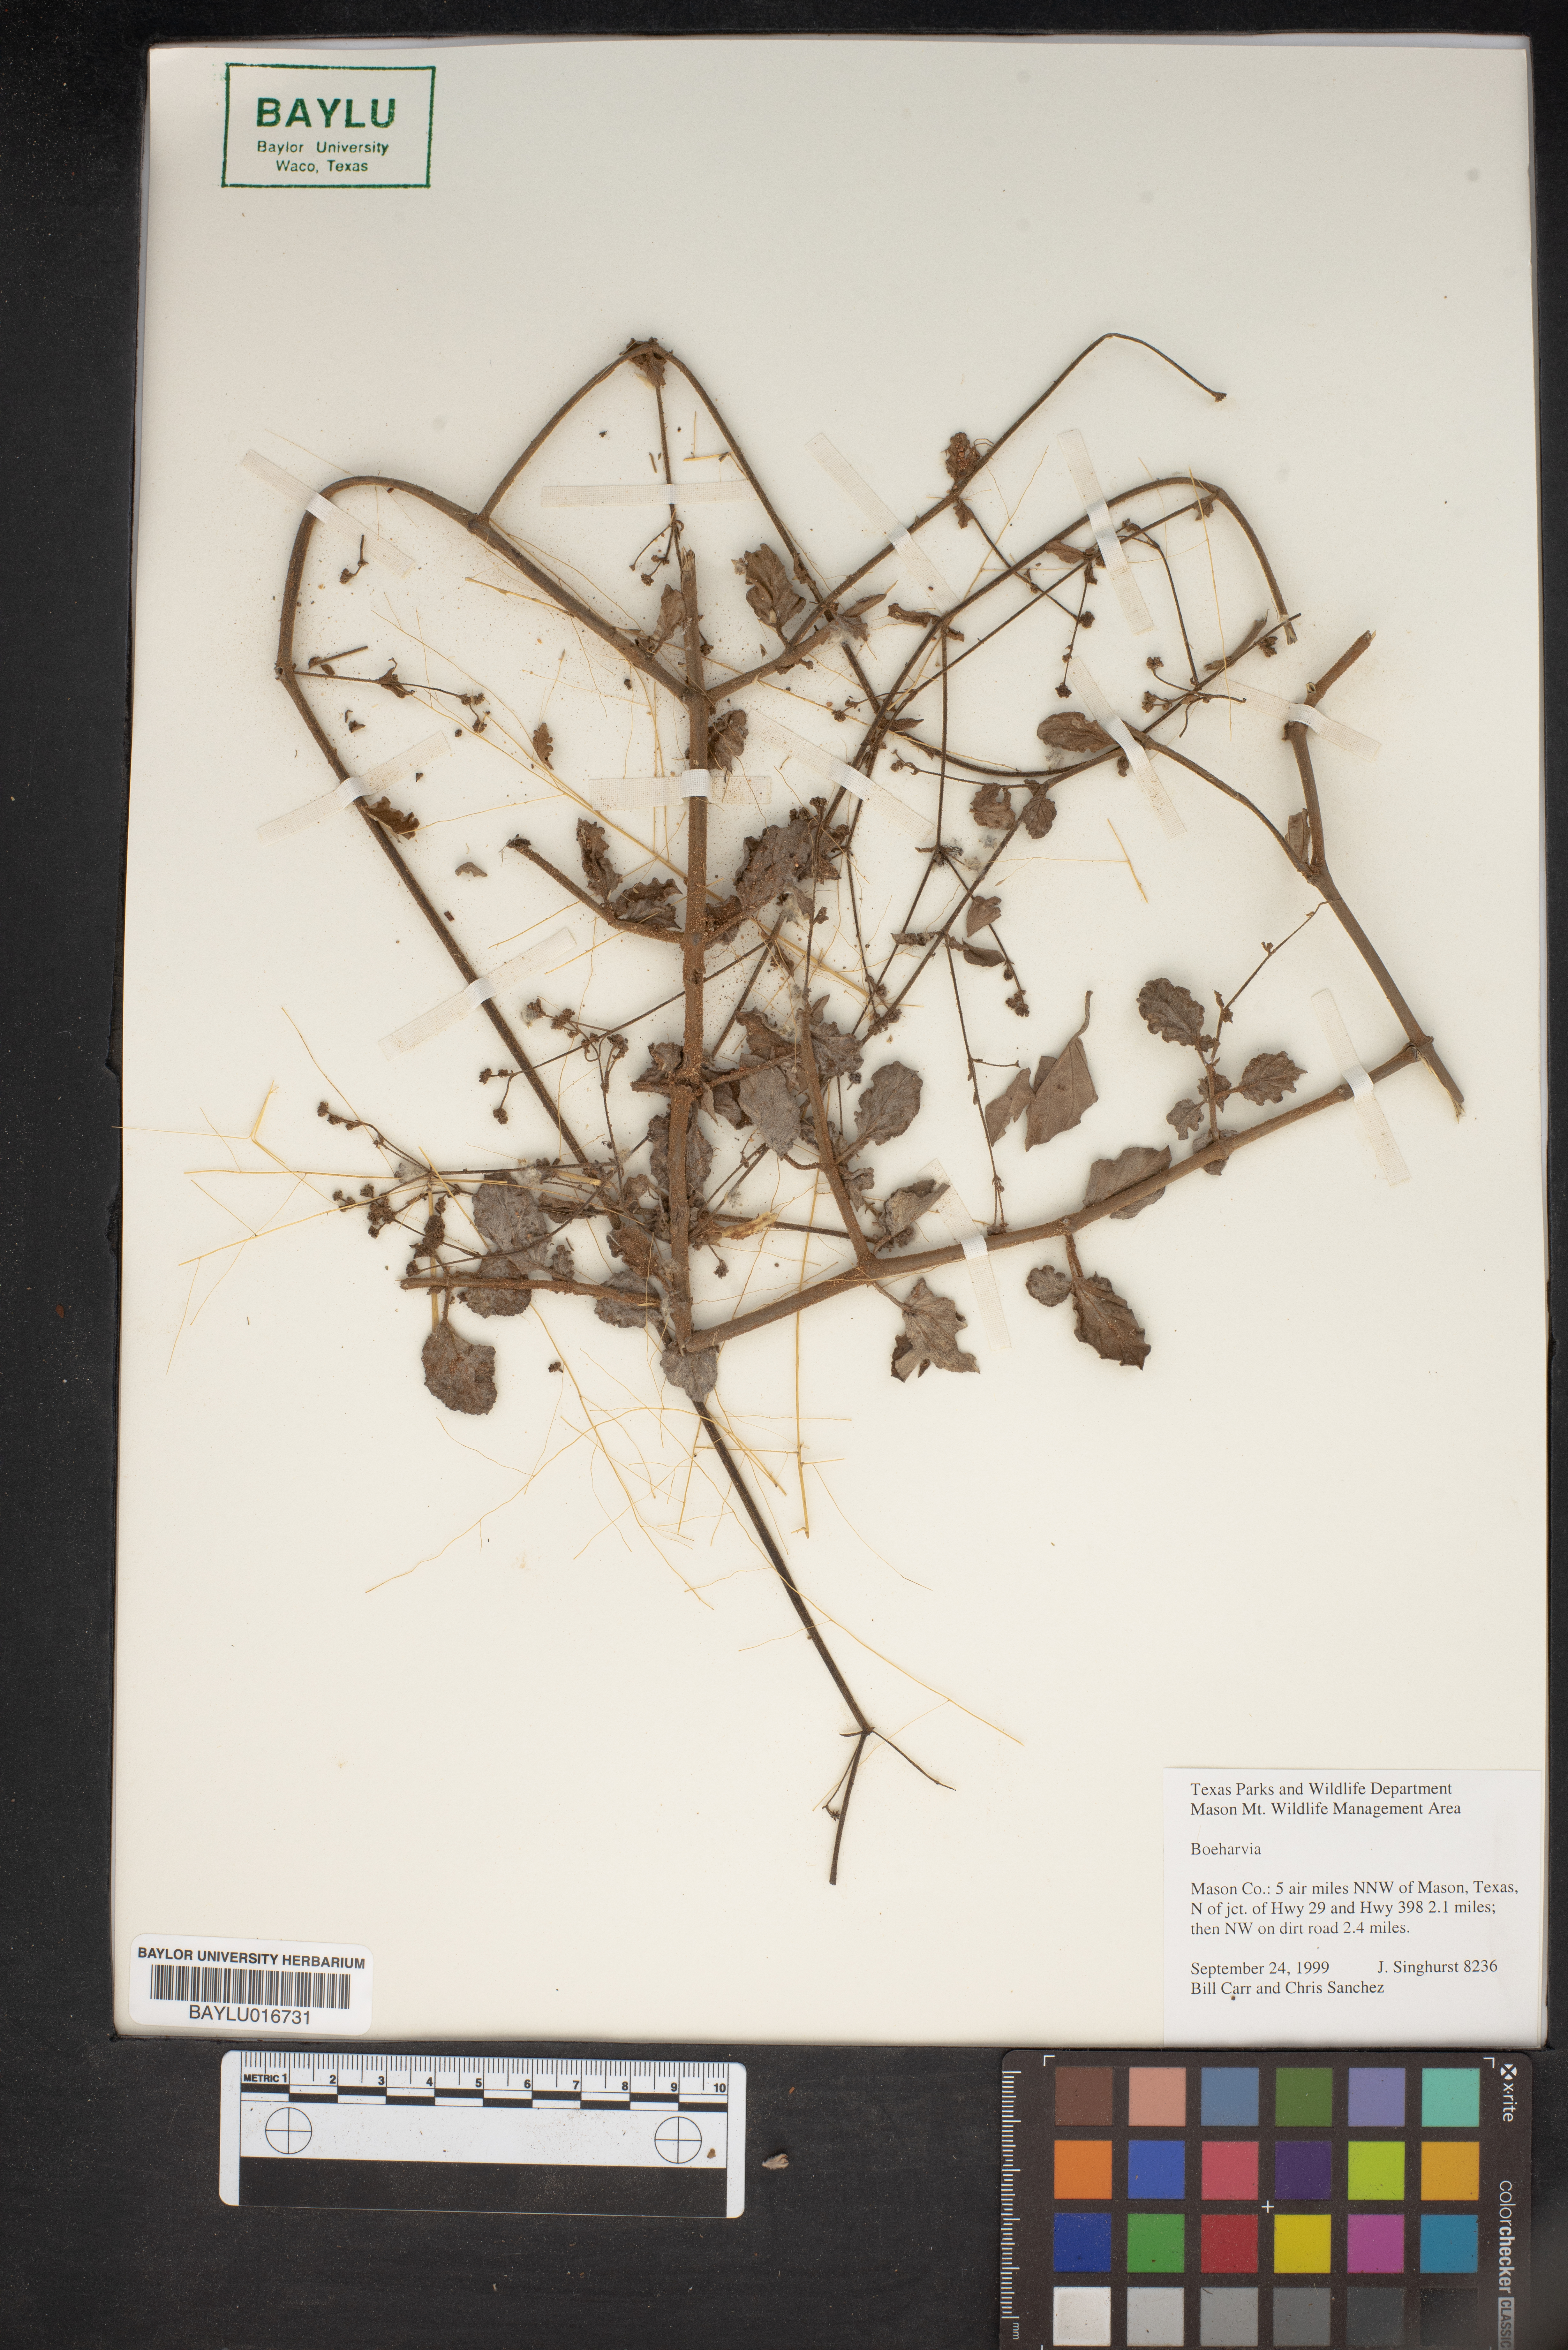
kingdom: Plantae
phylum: Tracheophyta
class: Magnoliopsida
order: Caryophyllales
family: Nyctaginaceae
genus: Boerhavia
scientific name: Boerhavia
